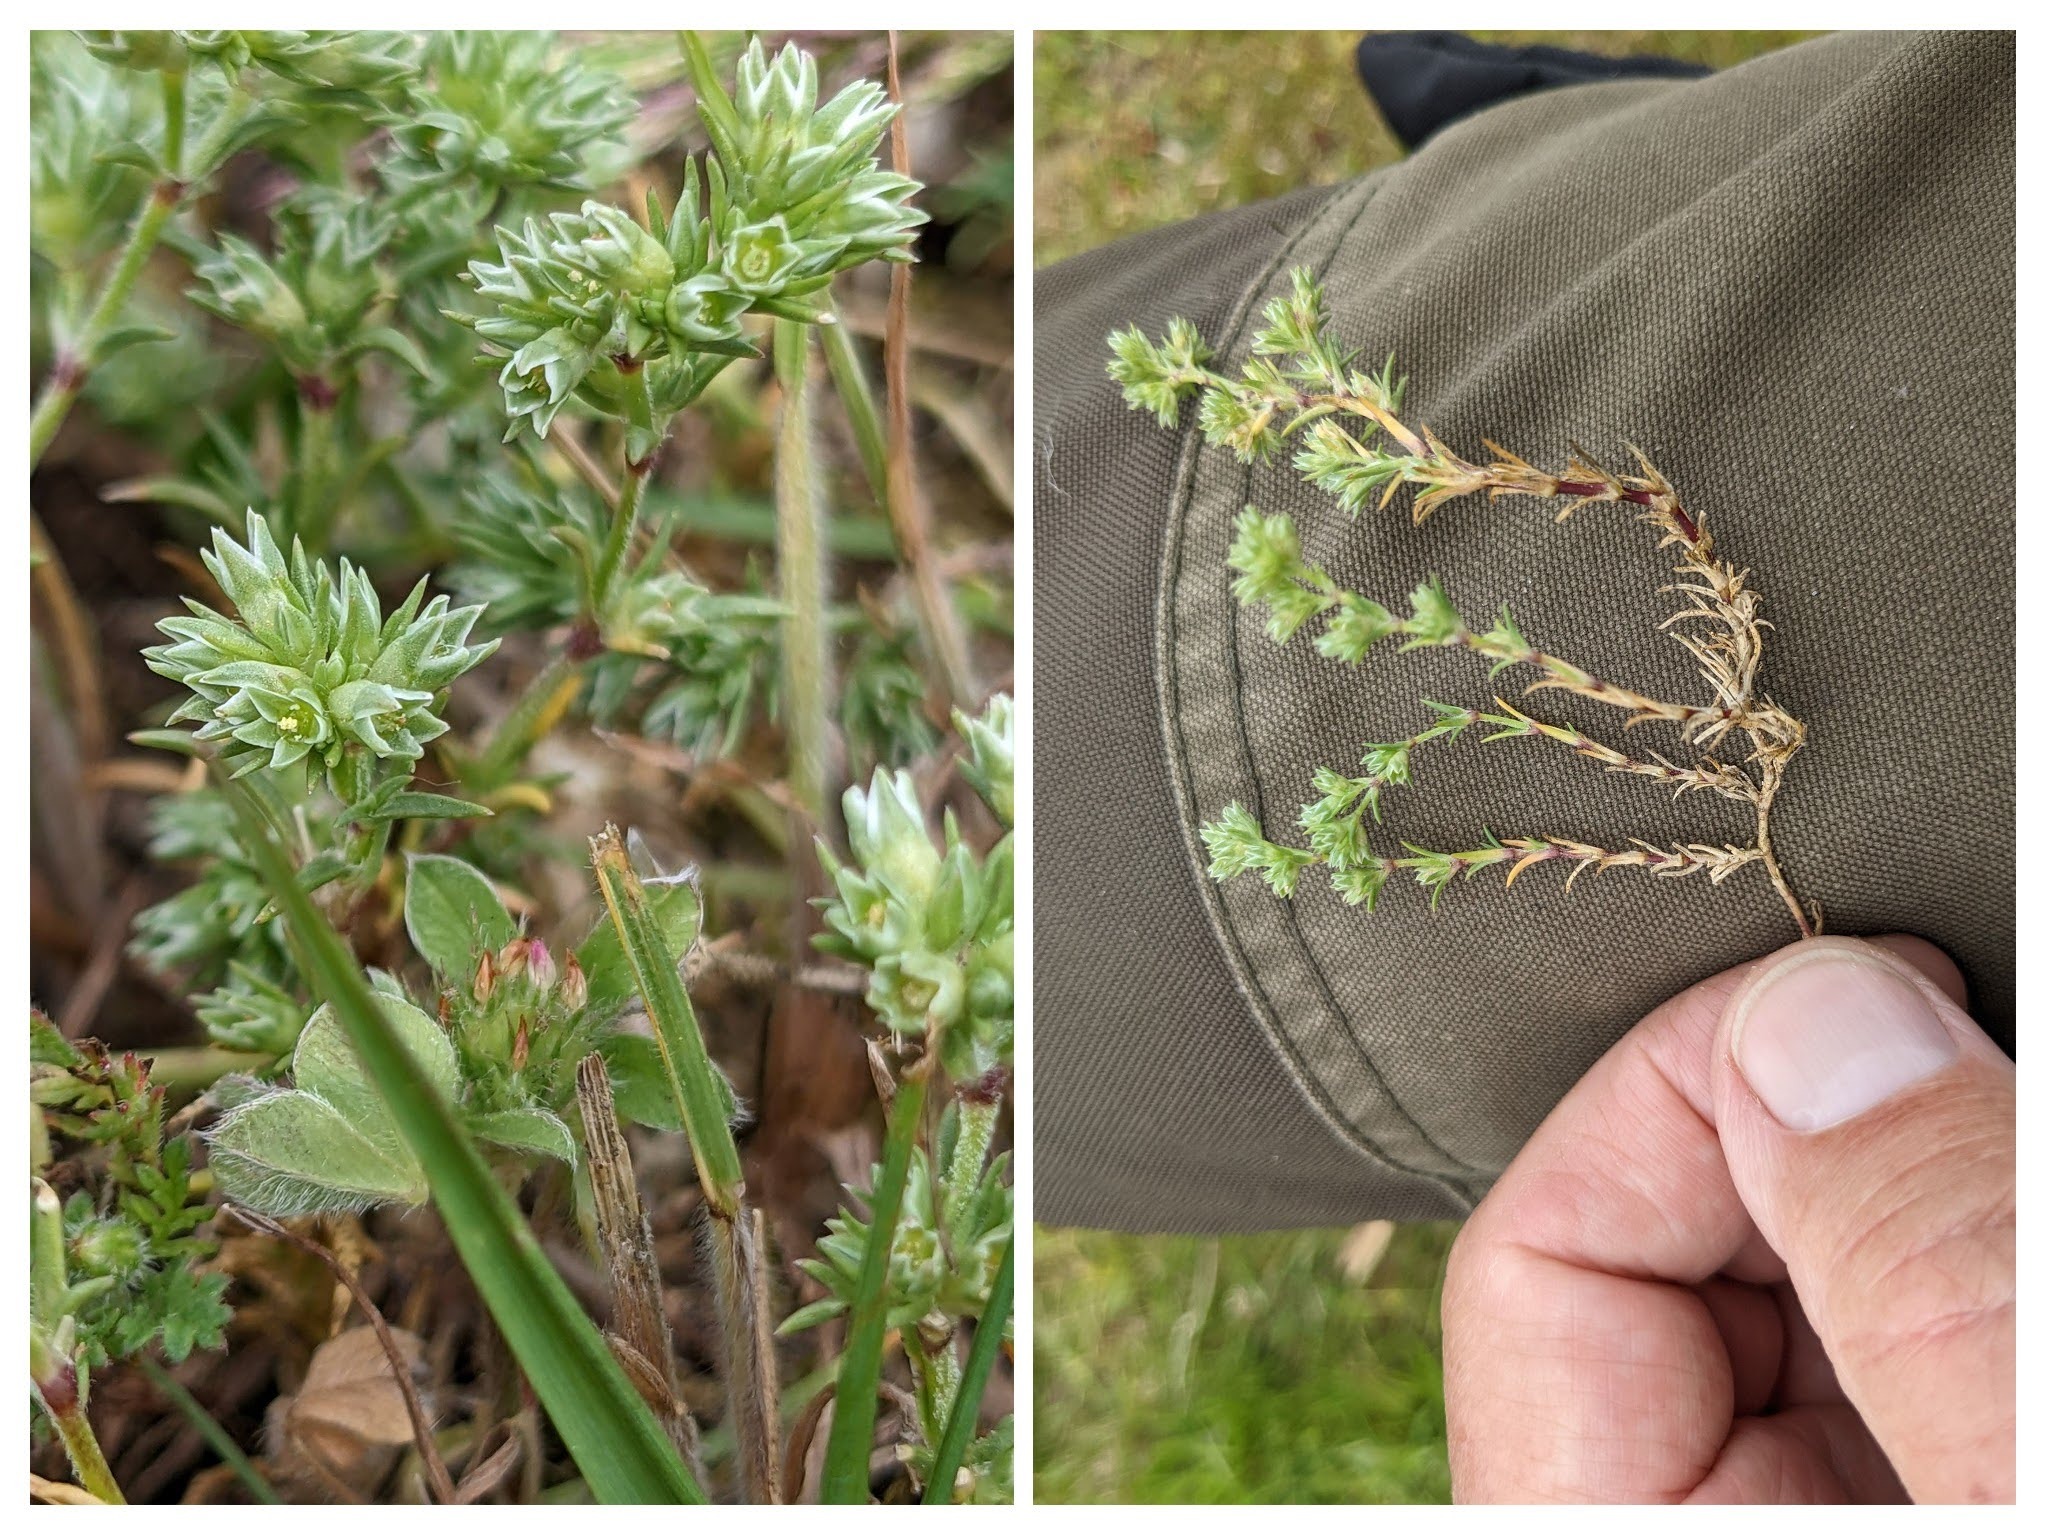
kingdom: Plantae
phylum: Tracheophyta
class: Magnoliopsida
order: Caryophyllales
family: Caryophyllaceae
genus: Scleranthus
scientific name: Scleranthus annuus
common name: Bakke-knavel
